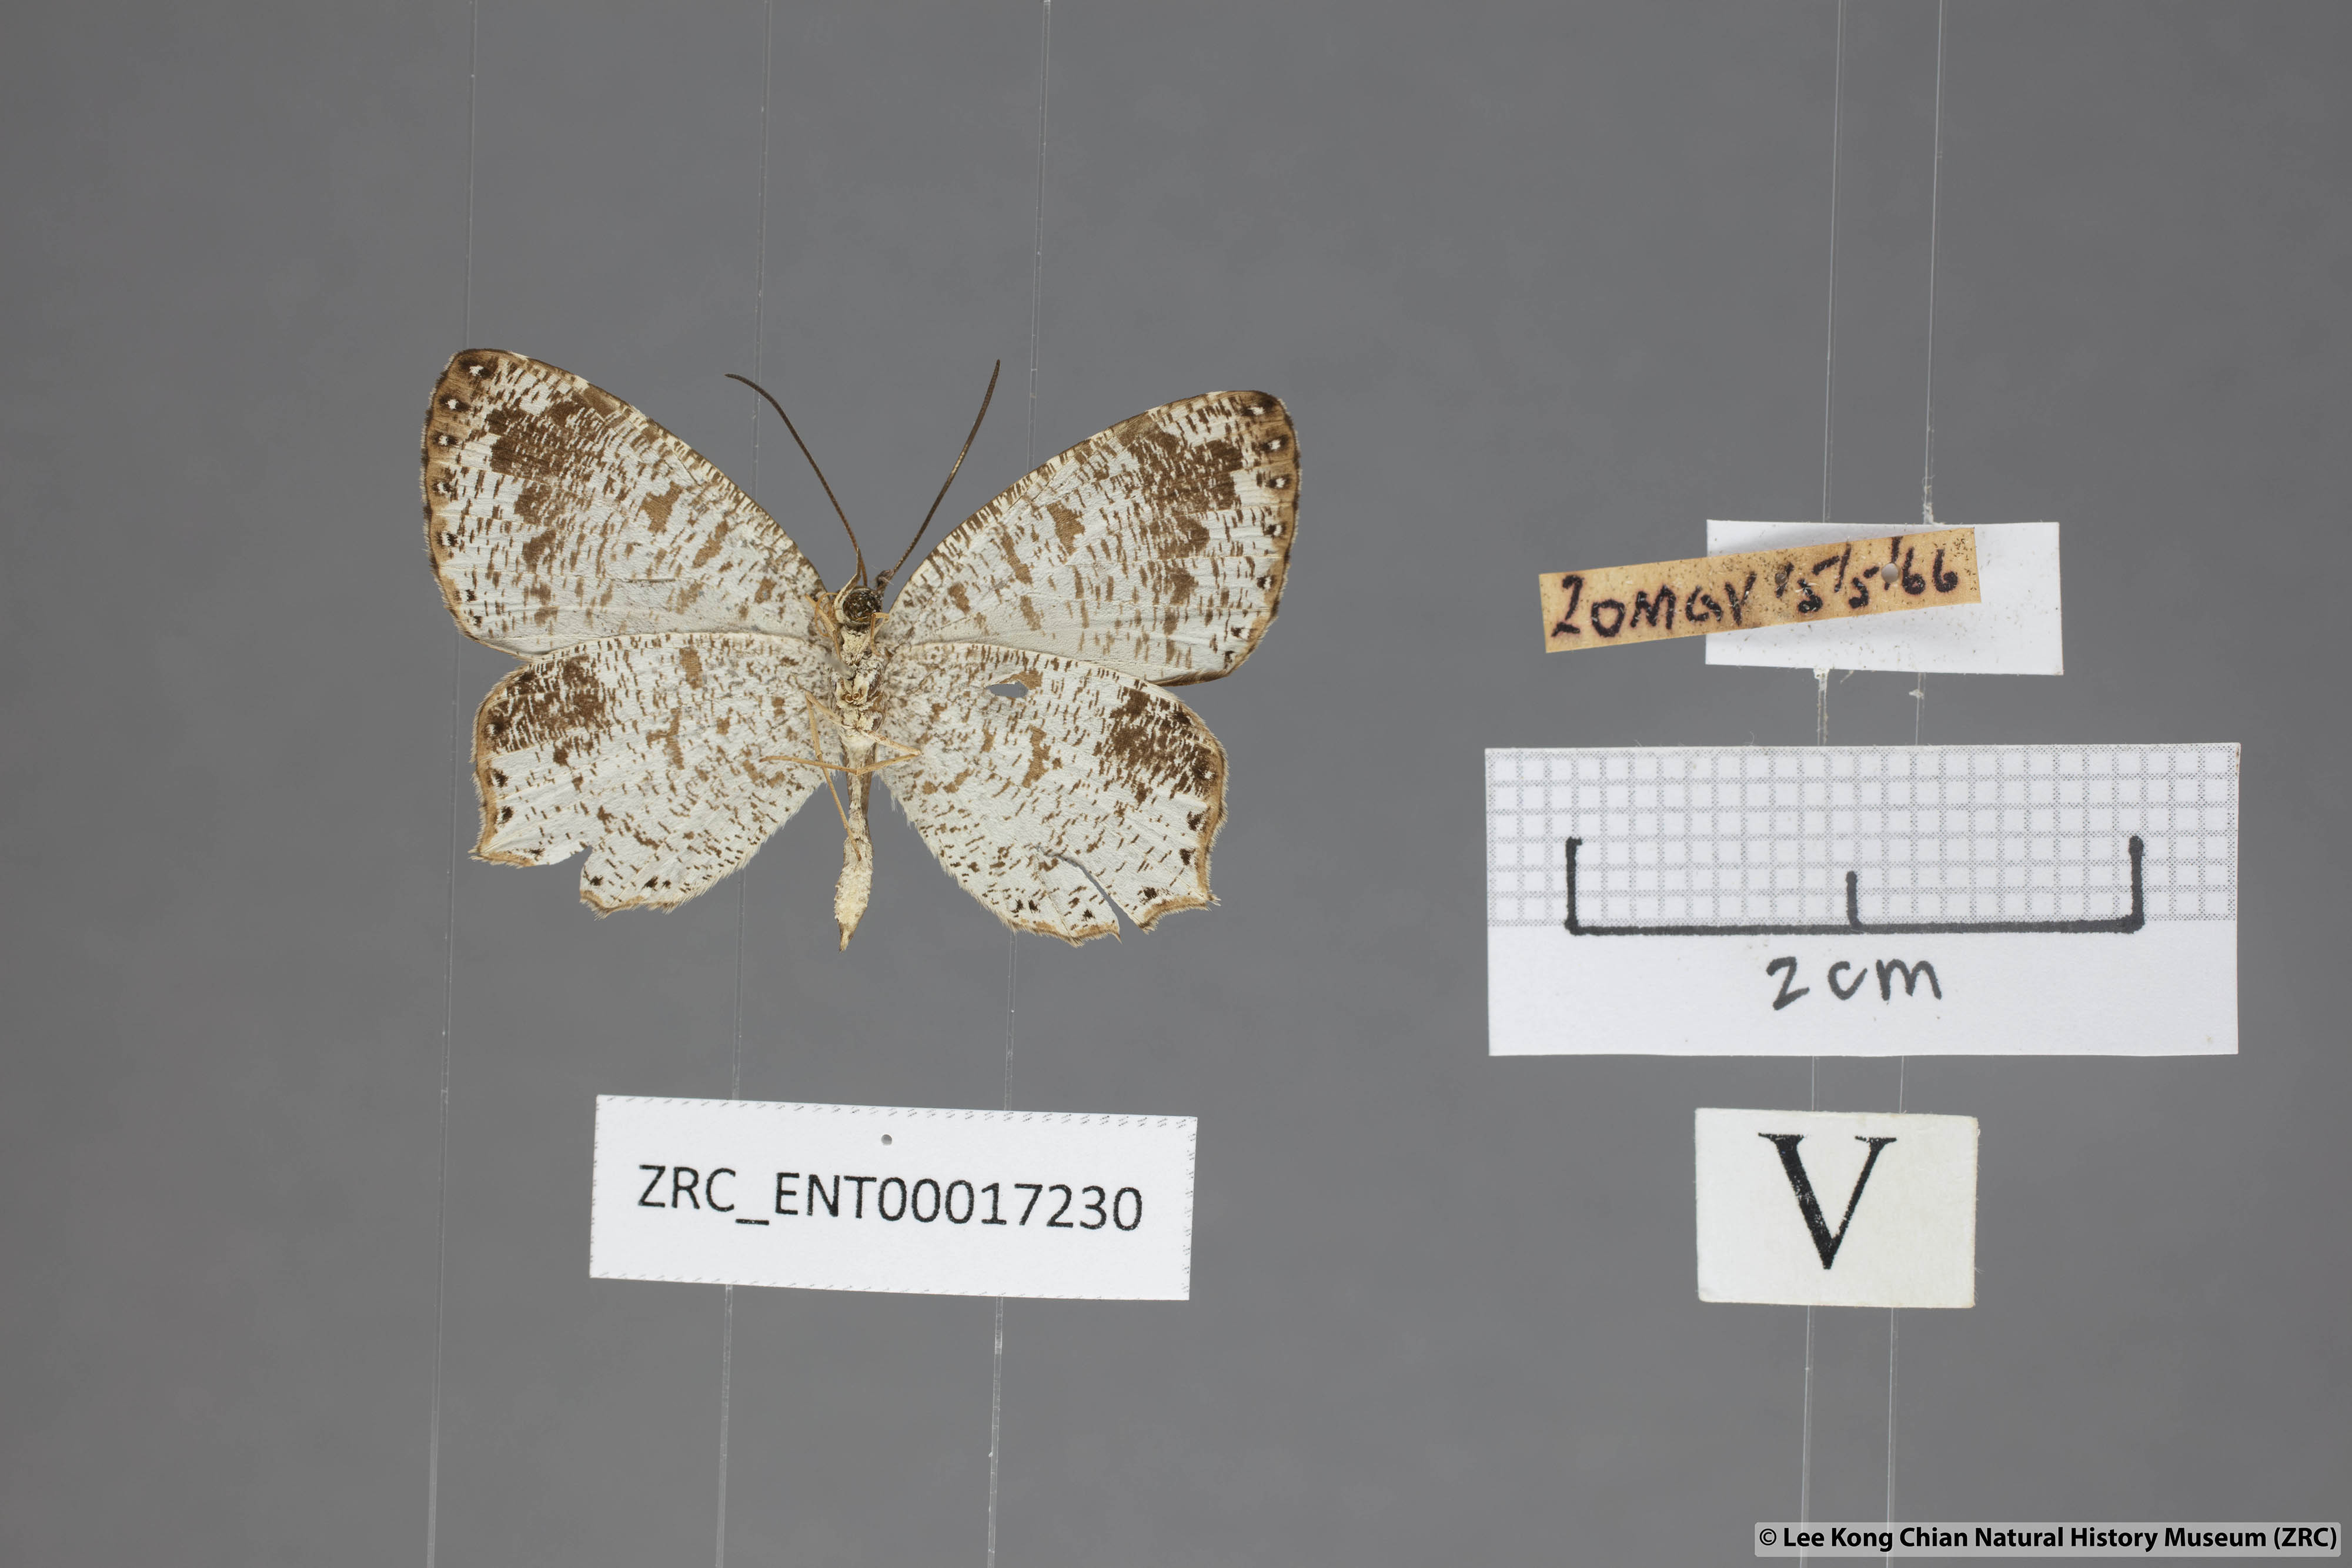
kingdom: Animalia
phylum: Arthropoda
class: Insecta
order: Lepidoptera
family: Lycaenidae
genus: Allotinus
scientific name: Allotinus fabius
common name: Angled darkie
